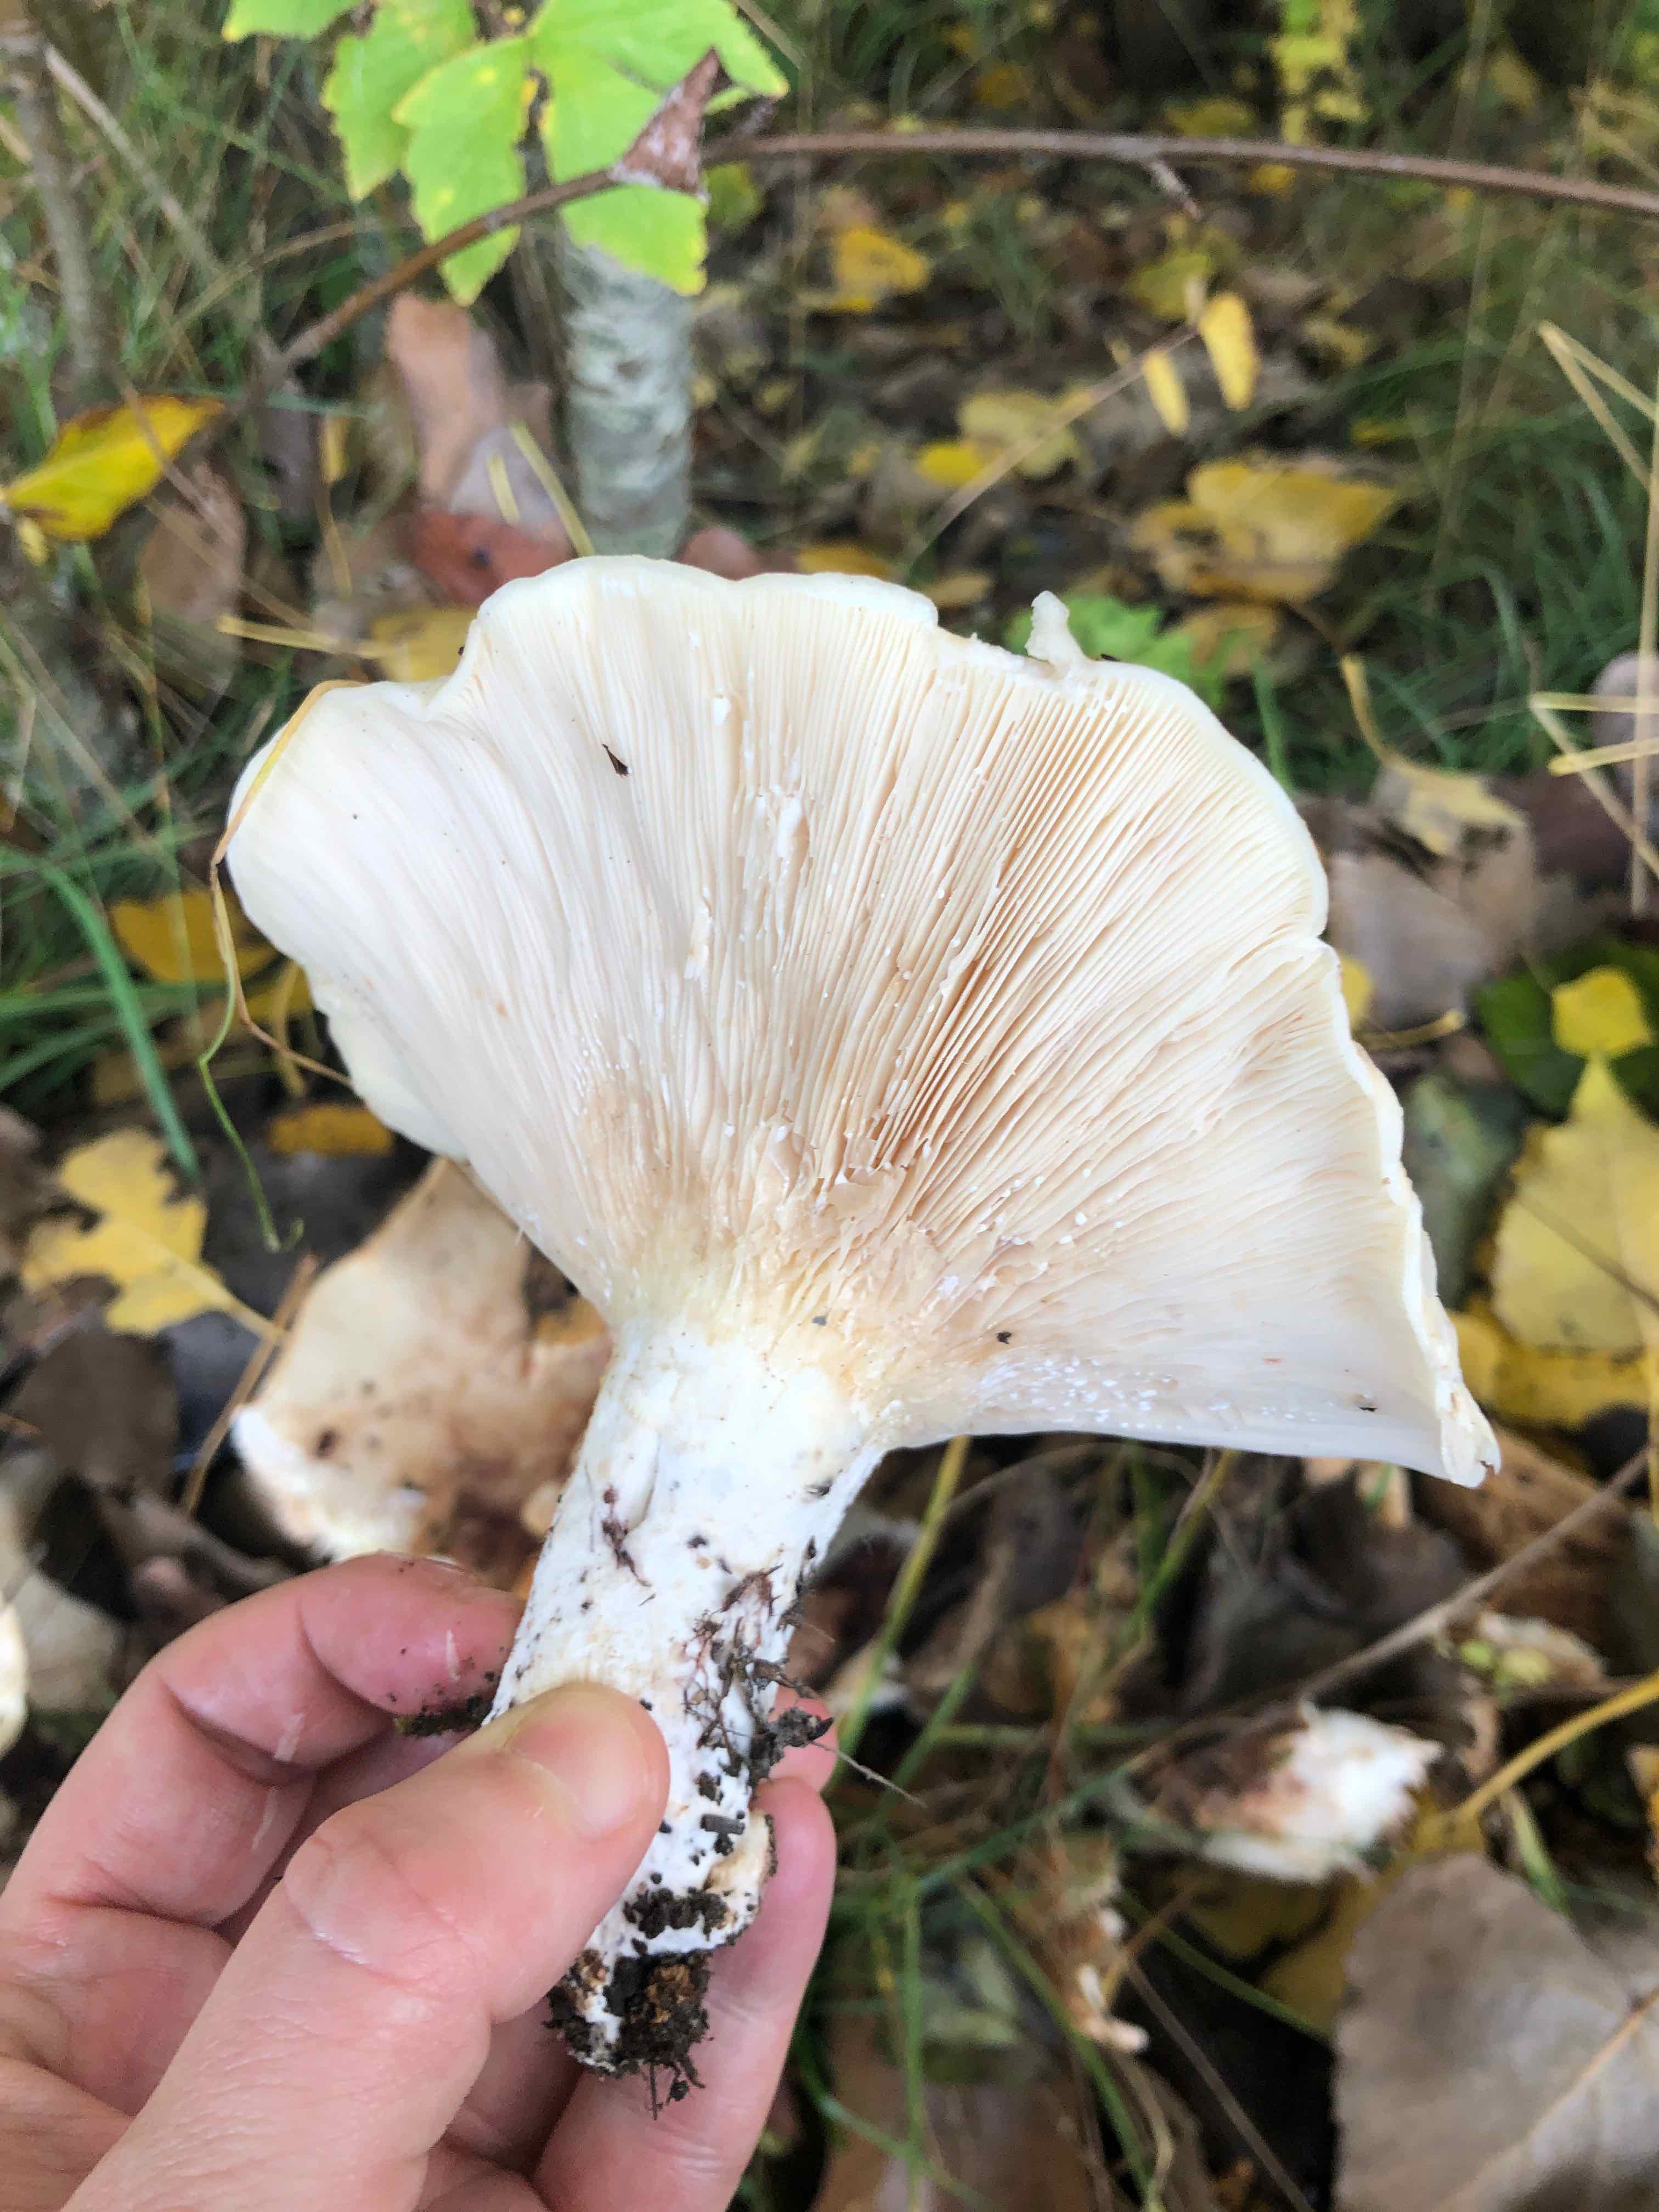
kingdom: Fungi
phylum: Basidiomycota
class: Agaricomycetes
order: Russulales
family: Russulaceae
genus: Lactarius
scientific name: Lactarius
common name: mælkehat
